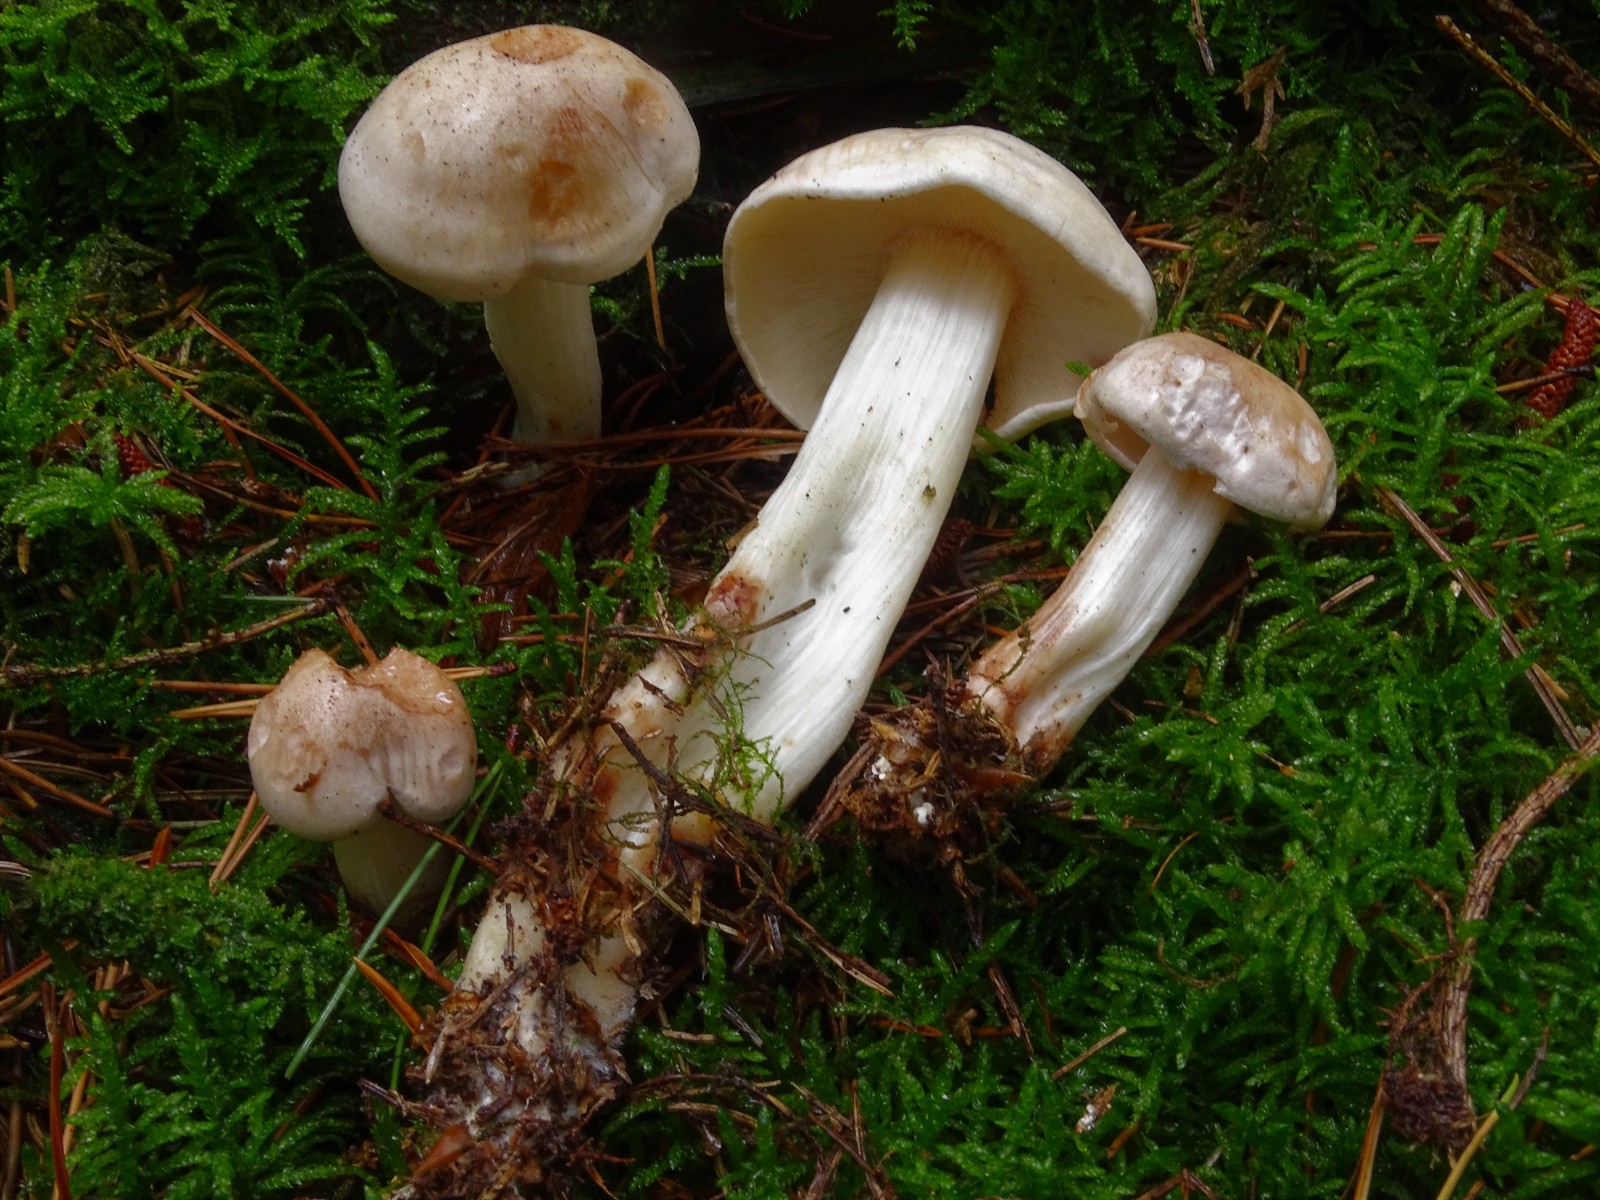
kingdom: Fungi
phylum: Basidiomycota
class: Agaricomycetes
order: Agaricales
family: Omphalotaceae
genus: Rhodocollybia
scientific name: Rhodocollybia maculata
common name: plettet fladhat
